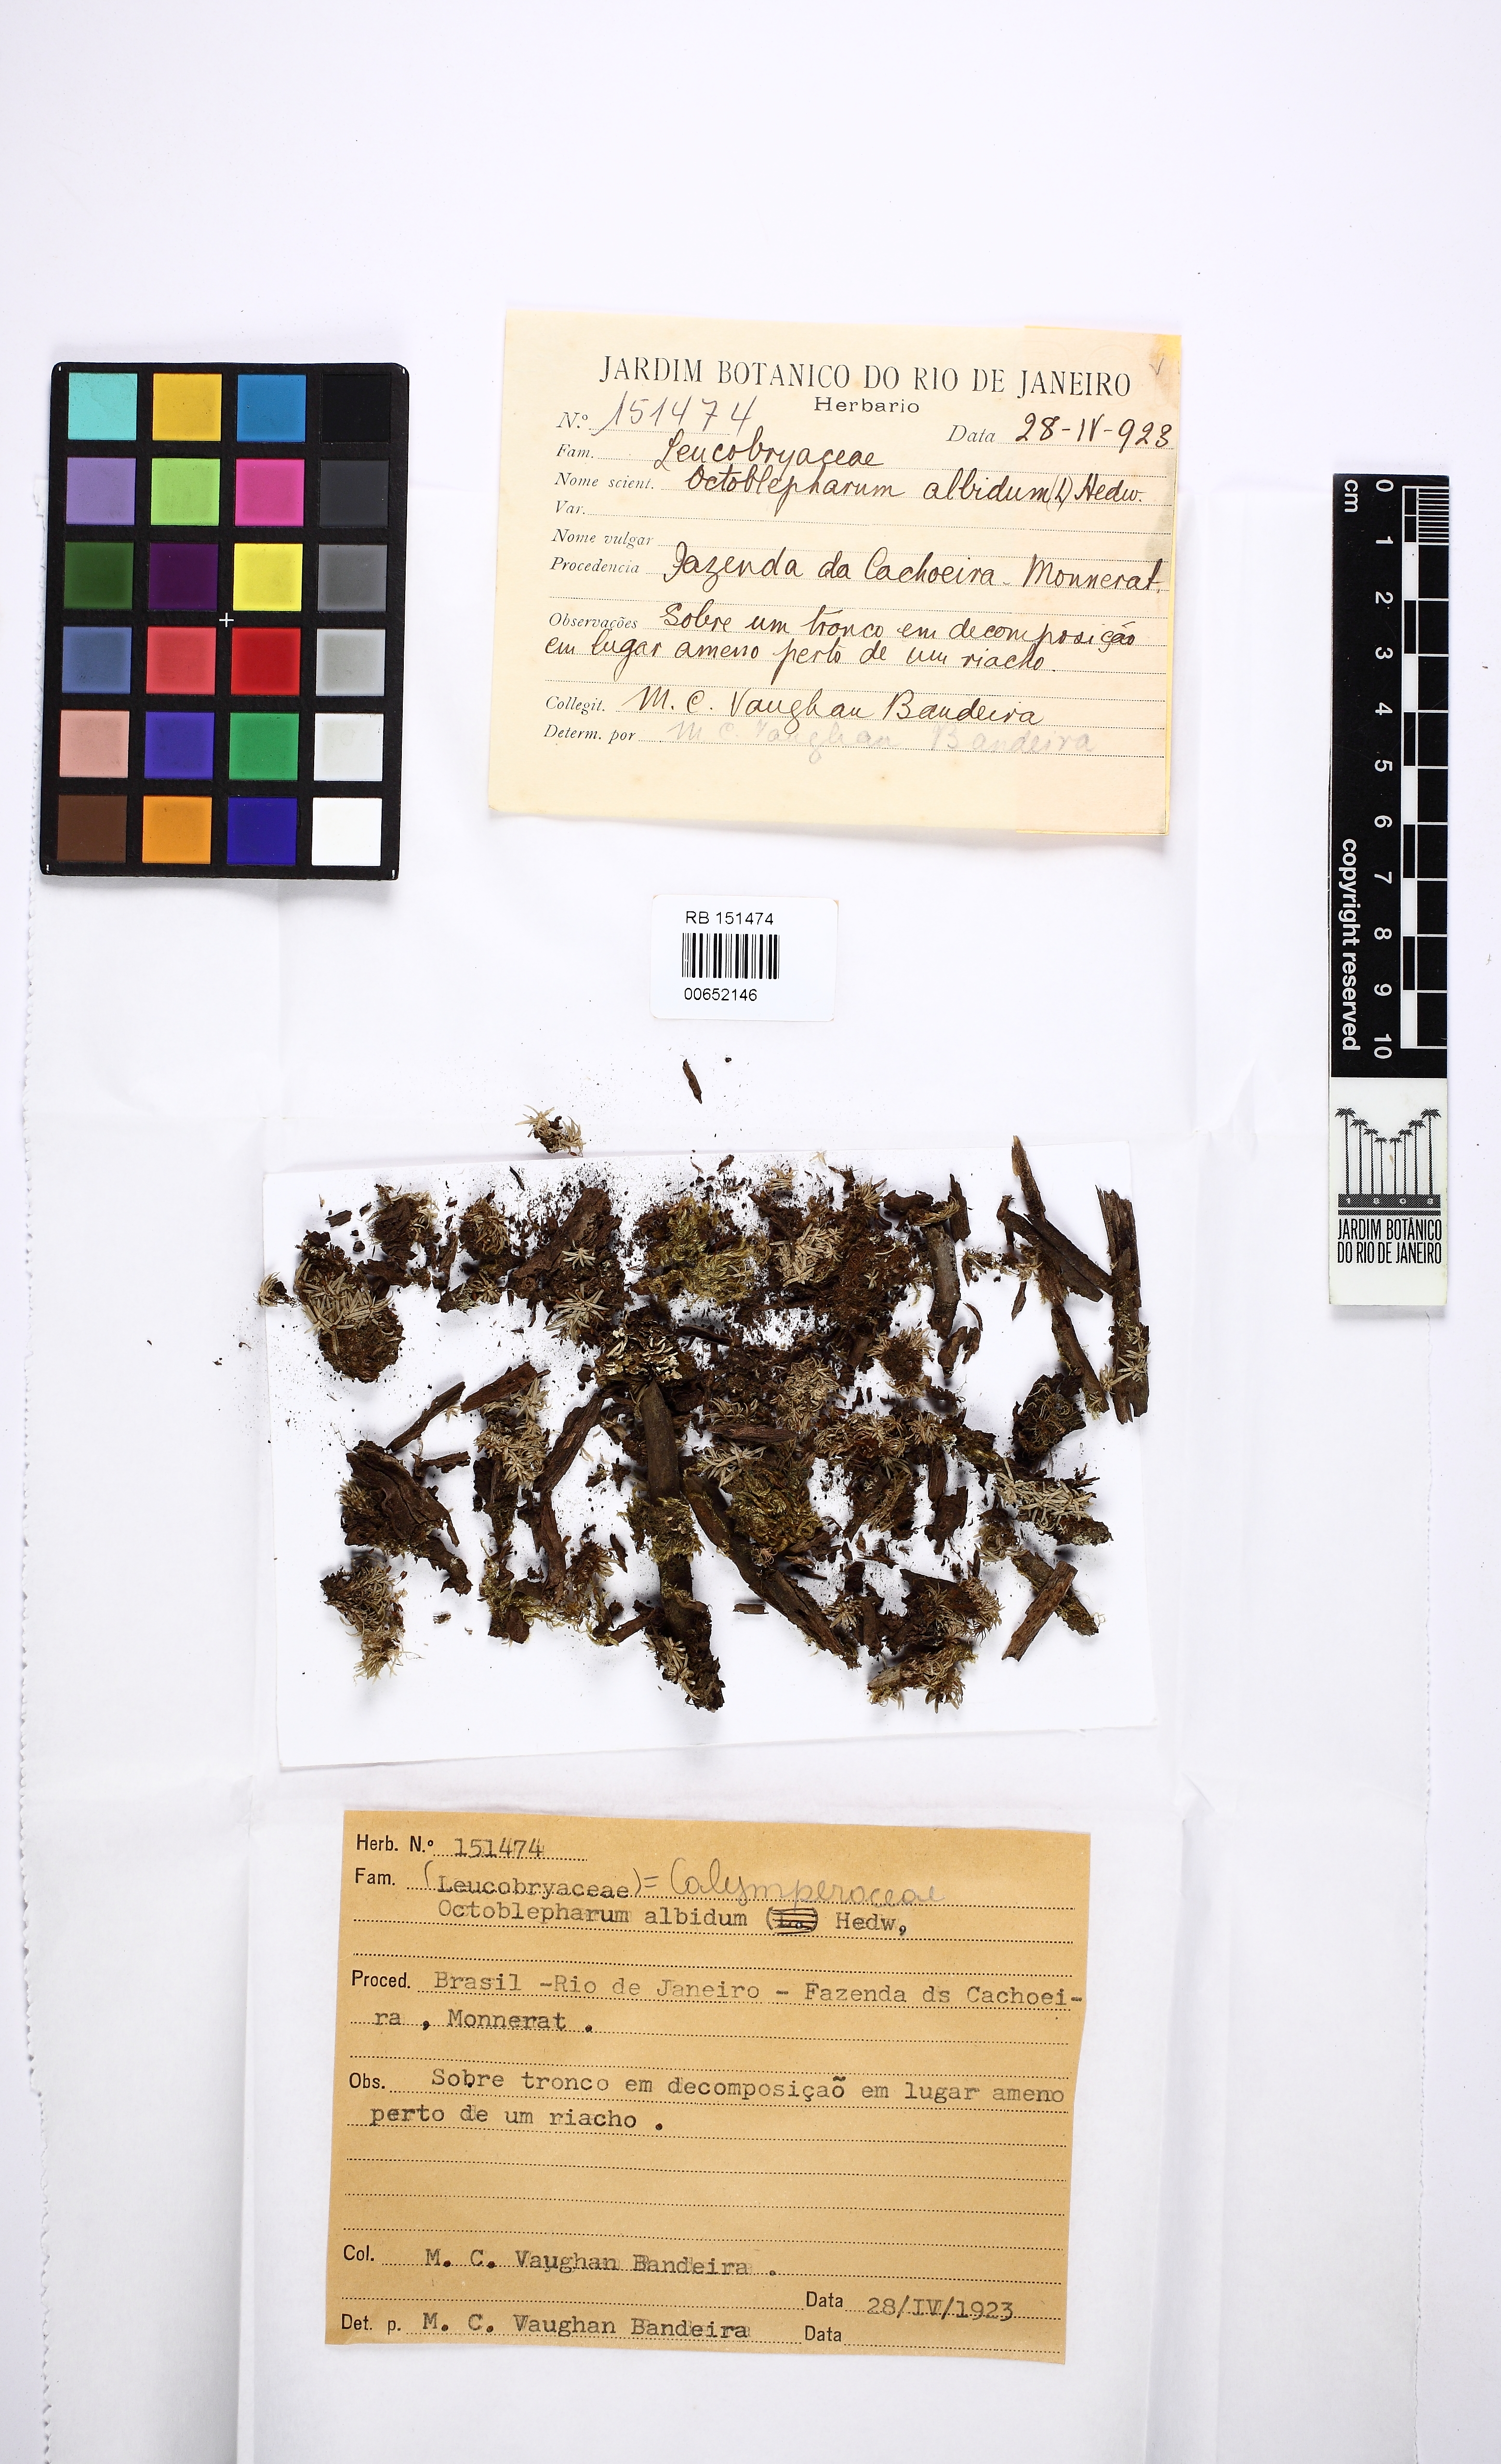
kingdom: Plantae
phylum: Bryophyta
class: Bryopsida
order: Dicranales
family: Octoblepharaceae
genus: Octoblepharum
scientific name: Octoblepharum albidum
